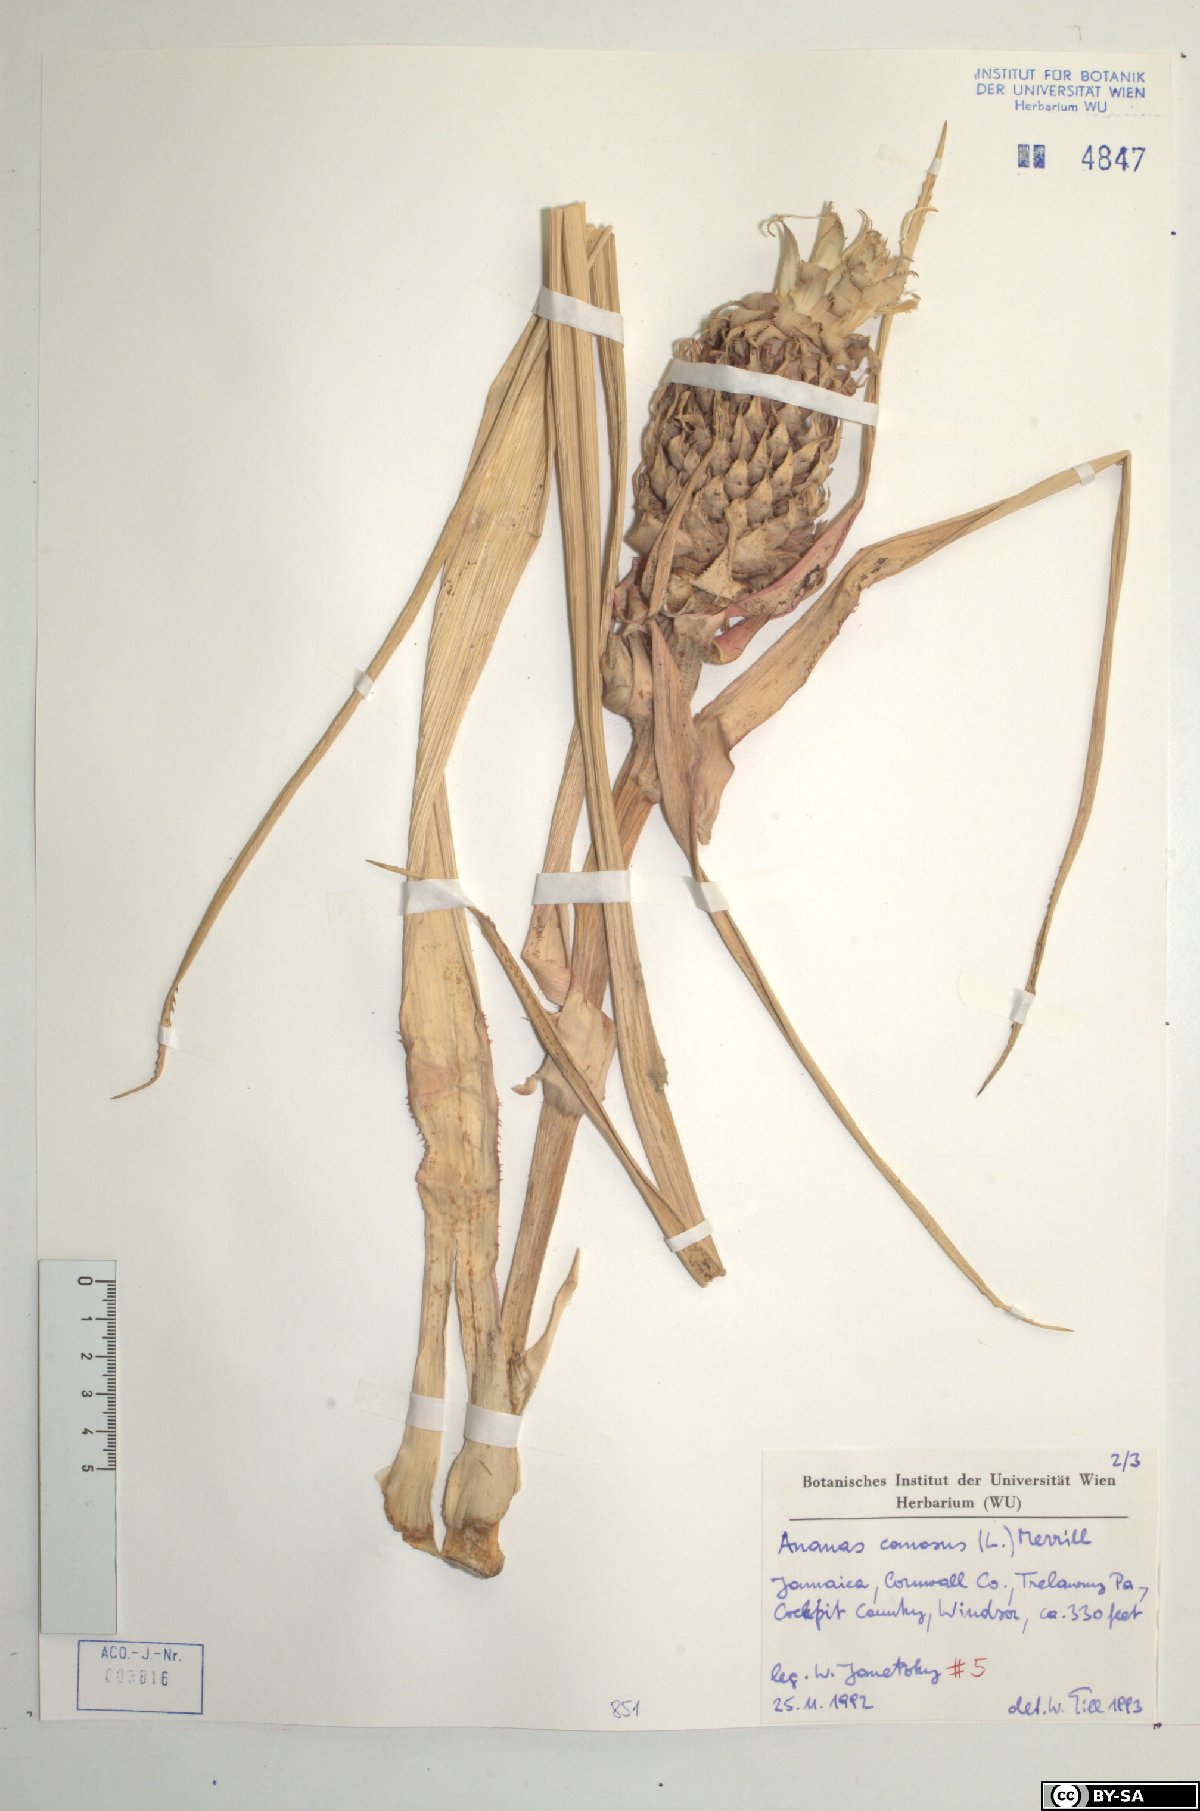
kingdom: Plantae
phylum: Tracheophyta
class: Liliopsida
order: Poales
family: Bromeliaceae
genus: Ananas
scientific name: Ananas comosus
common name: Pineapple
